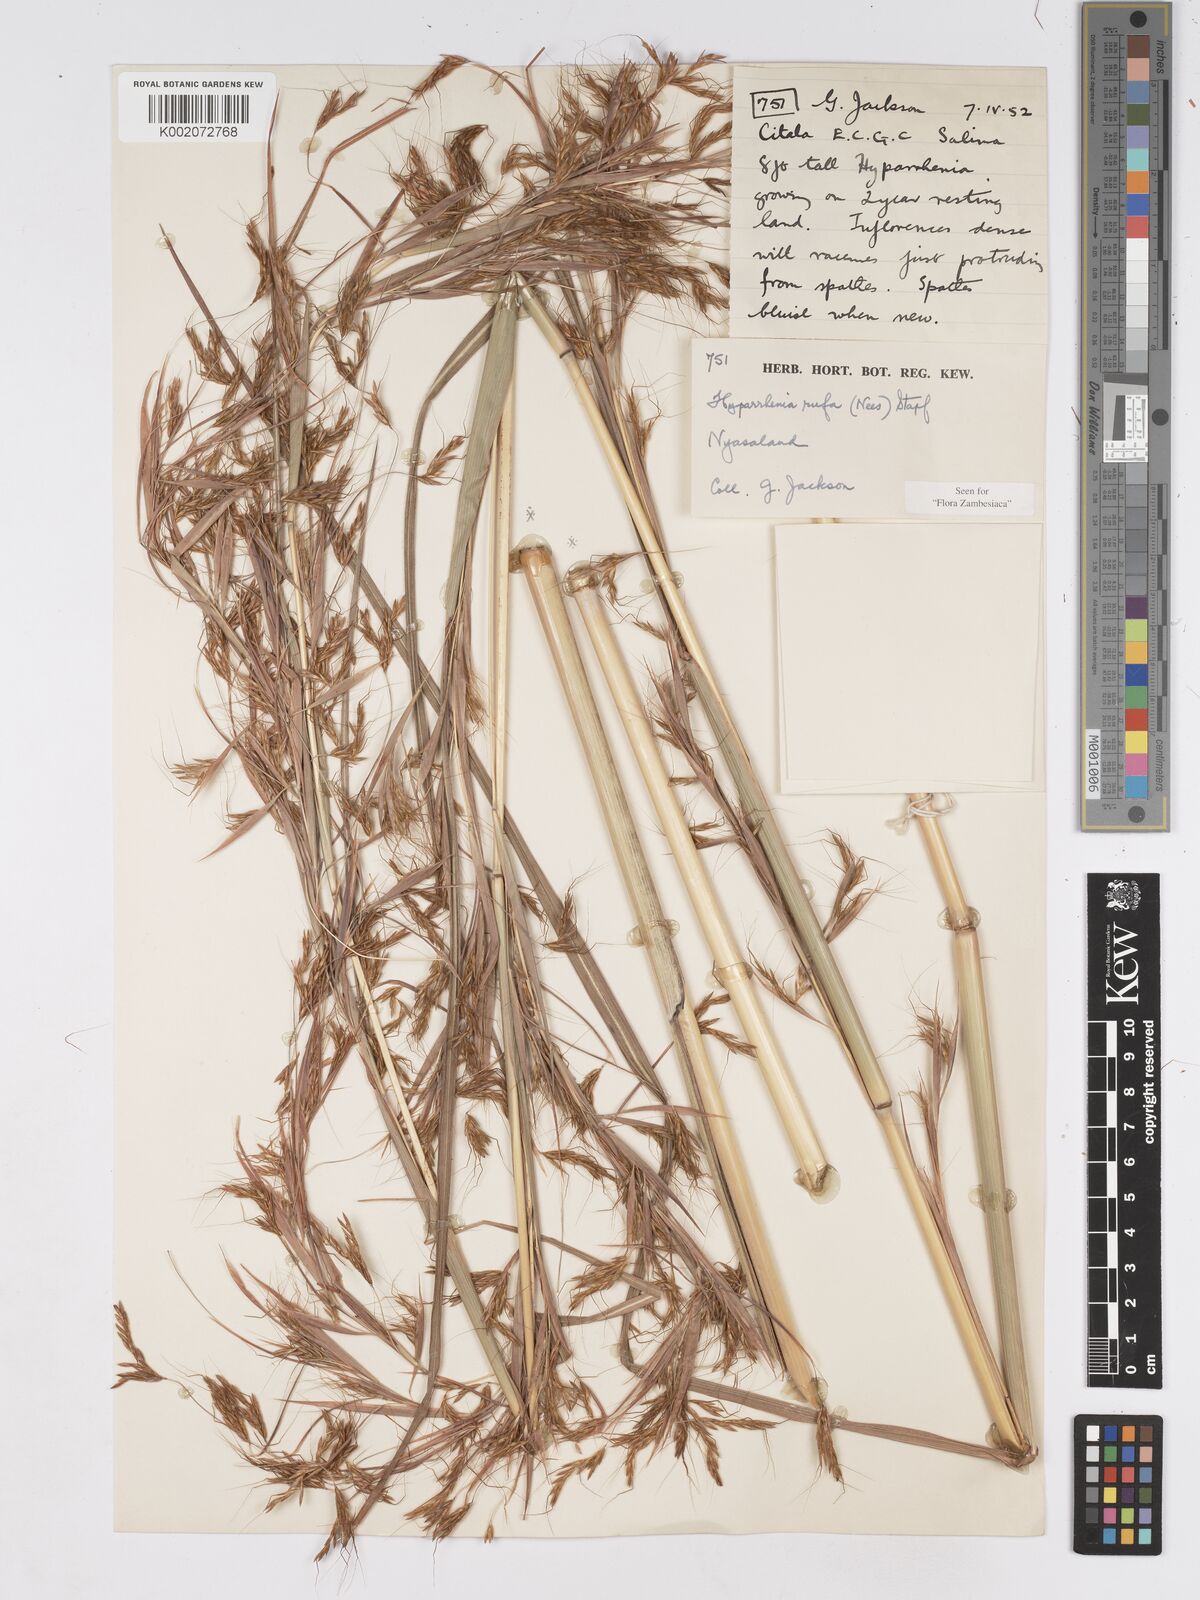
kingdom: Plantae
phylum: Tracheophyta
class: Liliopsida
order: Poales
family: Poaceae
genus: Hyparrhenia
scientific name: Hyparrhenia rufa
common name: Jaraguagrass
